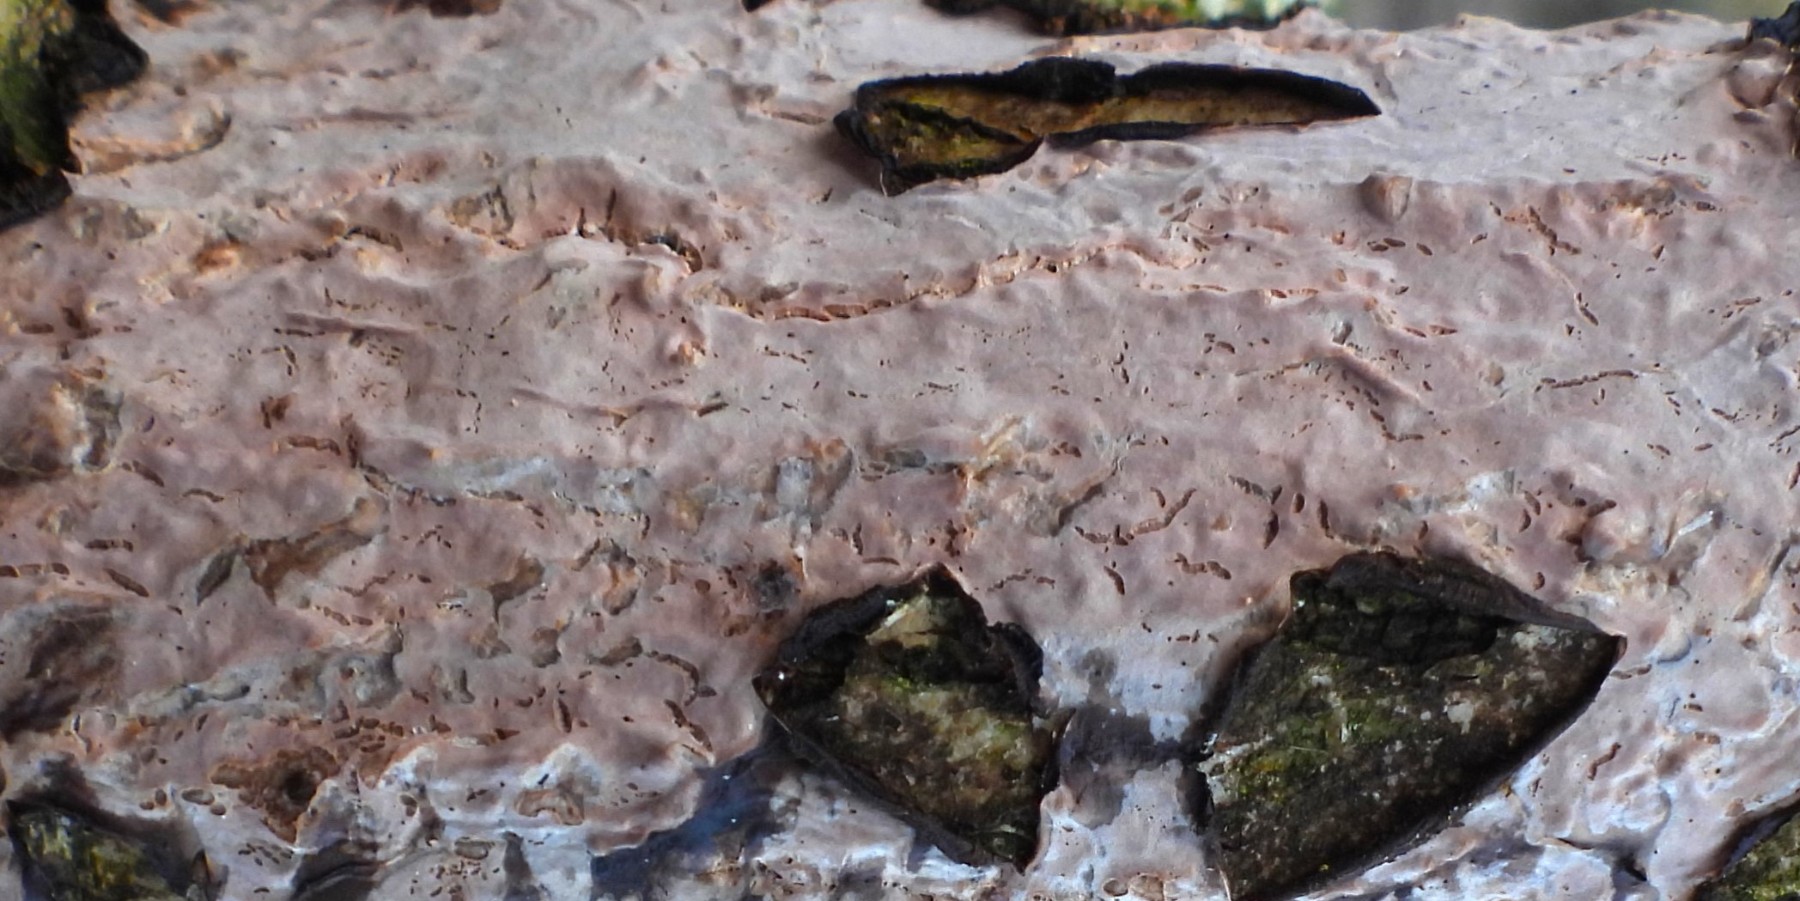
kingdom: Fungi
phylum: Basidiomycota
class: Agaricomycetes
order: Agaricales
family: Physalacriaceae
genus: Cylindrobasidium
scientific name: Cylindrobasidium evolvens
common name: sprækkehinde
